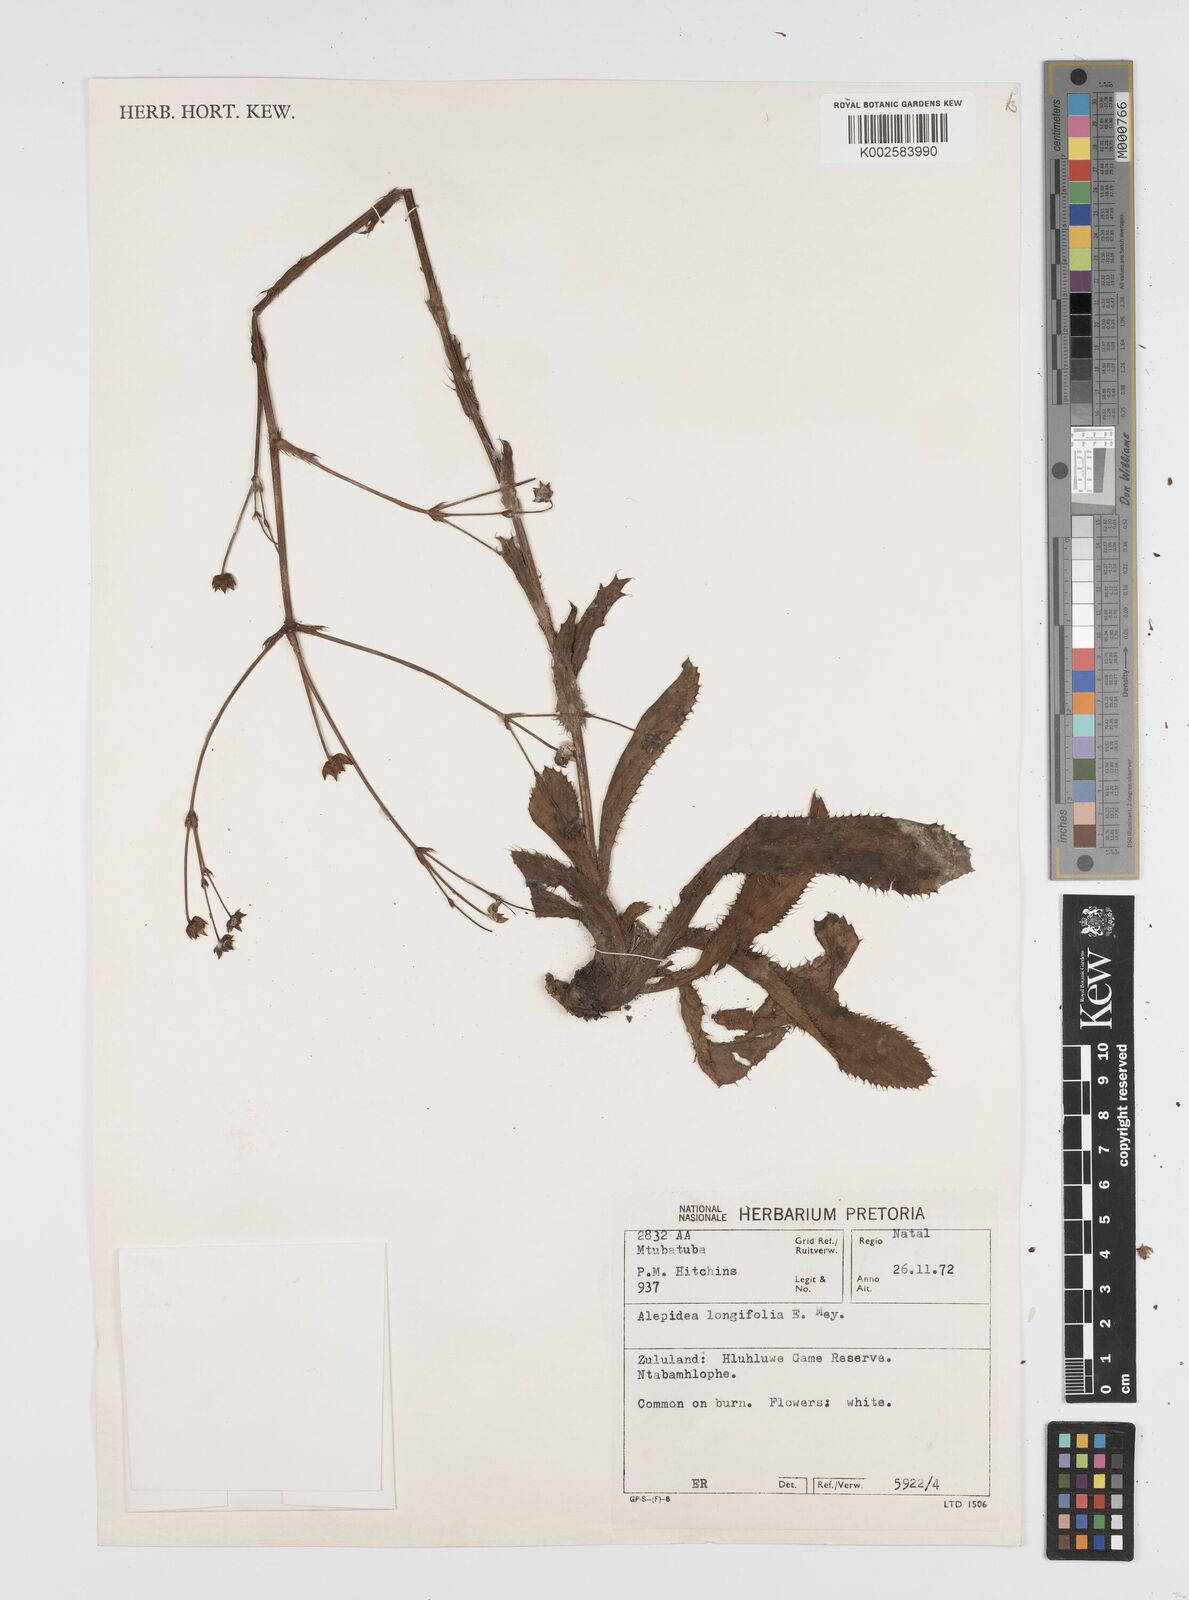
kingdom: Plantae
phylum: Tracheophyta
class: Magnoliopsida
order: Apiales
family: Apiaceae
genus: Alepidea
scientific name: Alepidea
